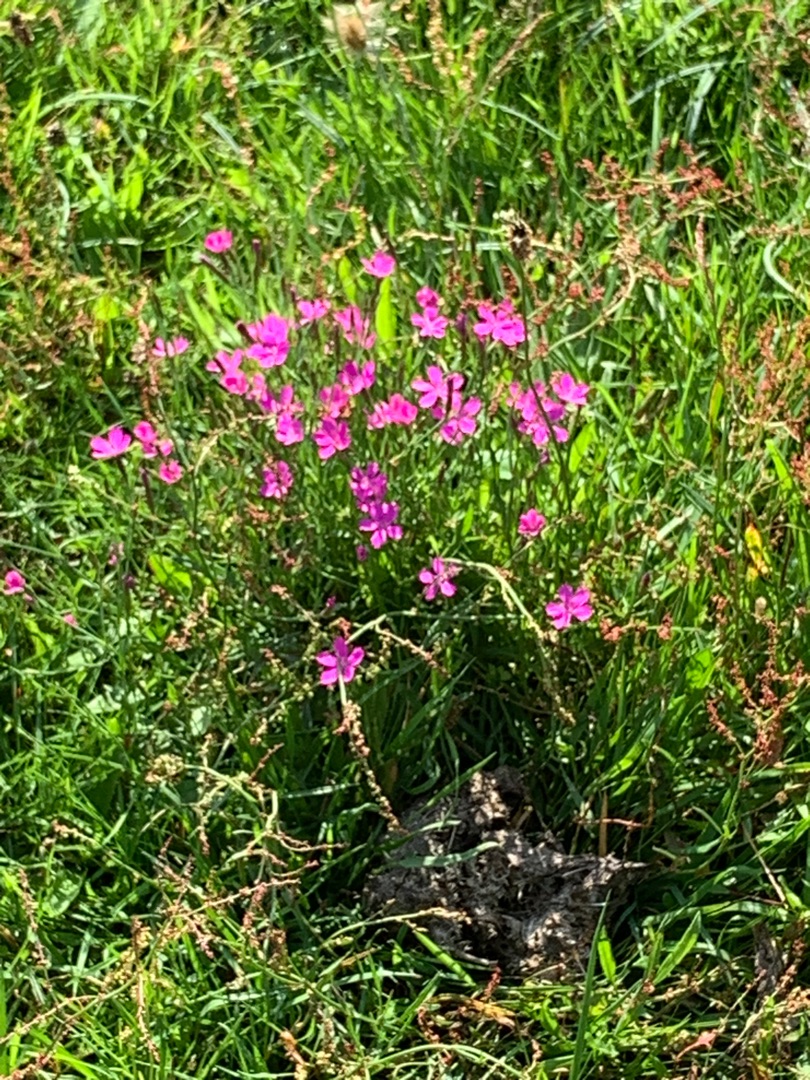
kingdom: Plantae
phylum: Tracheophyta
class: Magnoliopsida
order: Caryophyllales
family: Caryophyllaceae
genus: Dianthus
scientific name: Dianthus deltoides
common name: Bakke-nellike
